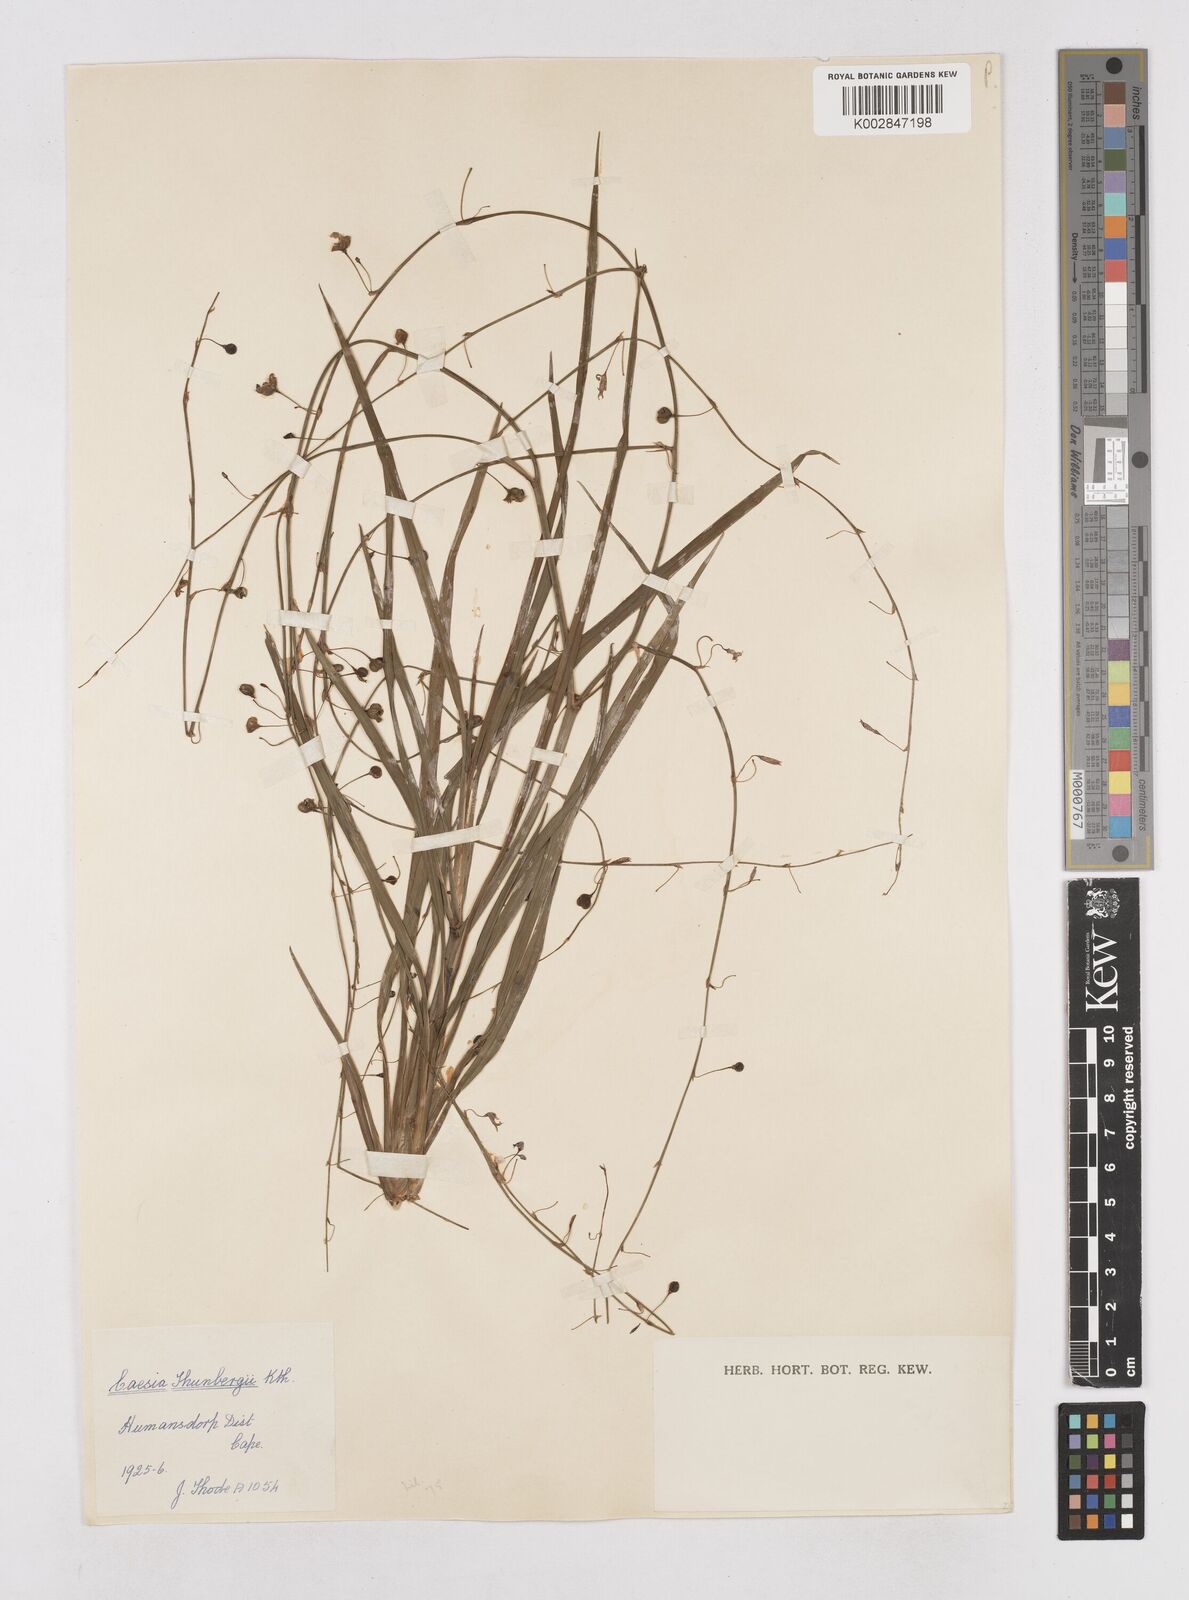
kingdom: Plantae
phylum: Tracheophyta
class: Liliopsida
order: Asparagales
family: Asphodelaceae
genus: Caesia
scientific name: Caesia contorta
